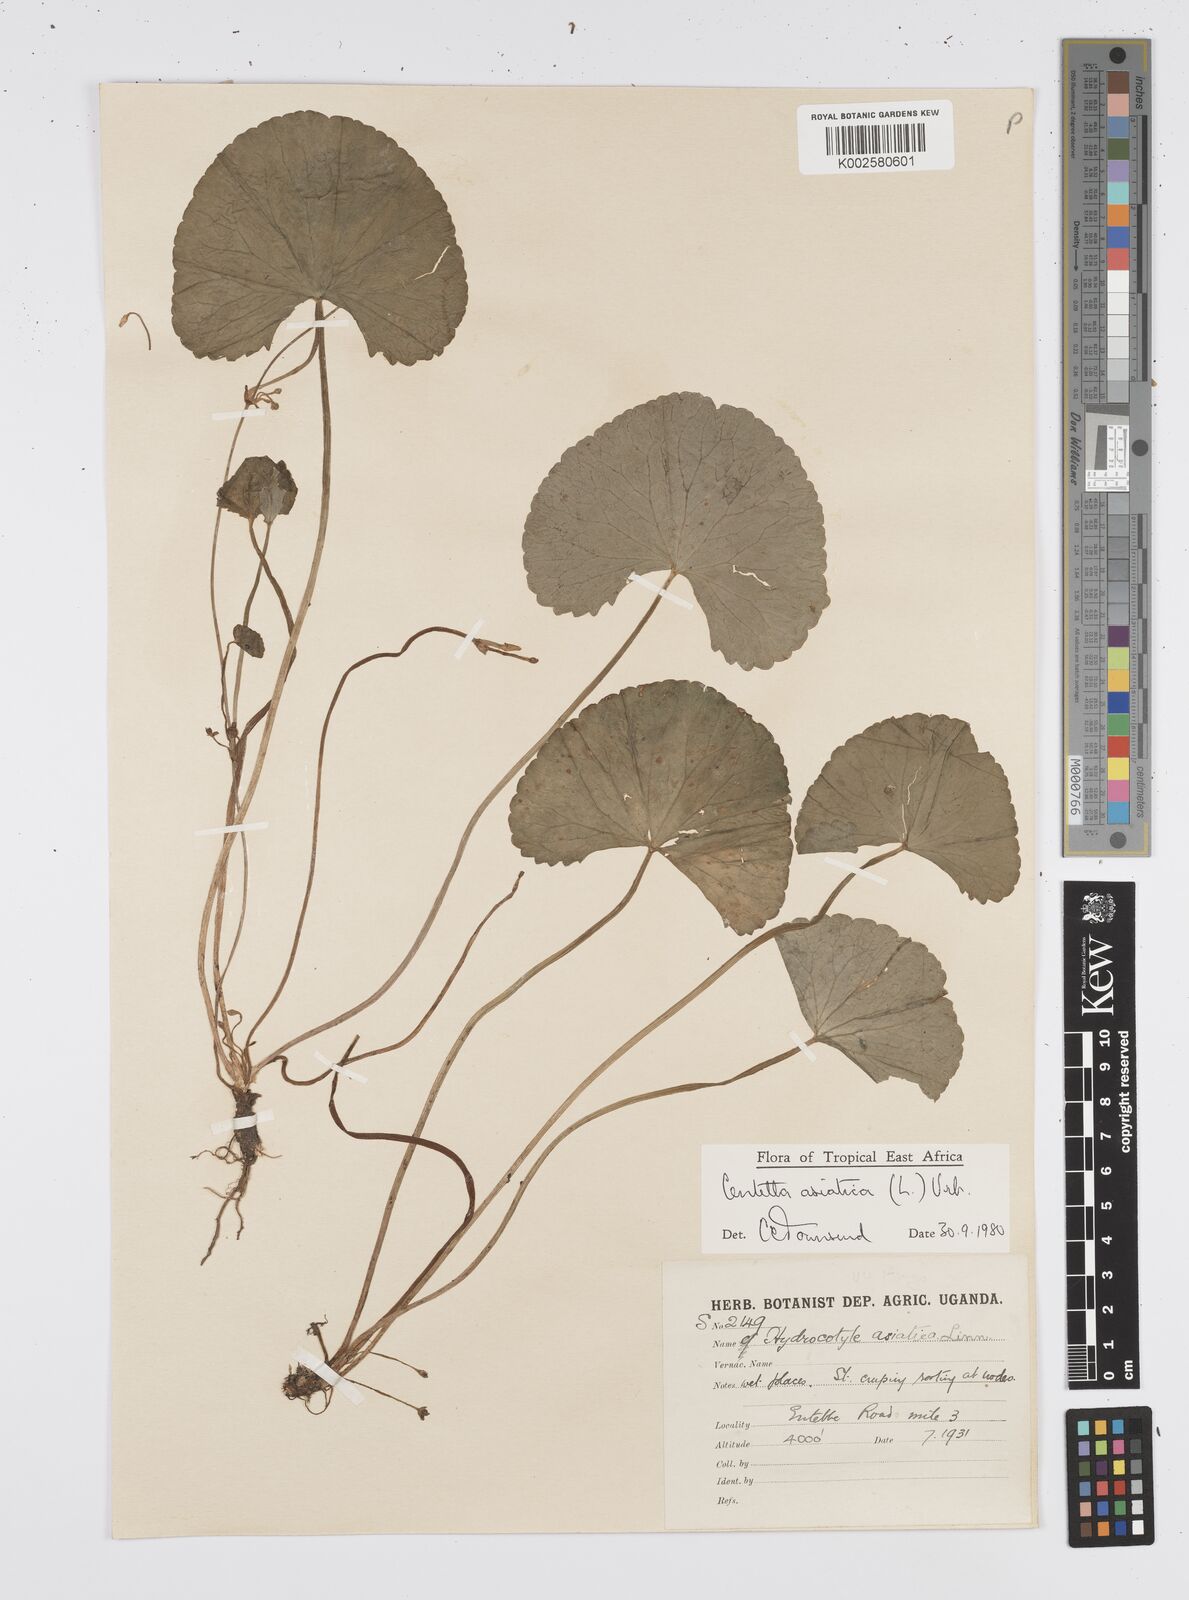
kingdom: Plantae
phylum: Tracheophyta
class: Magnoliopsida
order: Apiales
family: Apiaceae
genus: Centella
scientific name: Centella asiatica
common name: Spadeleaf
